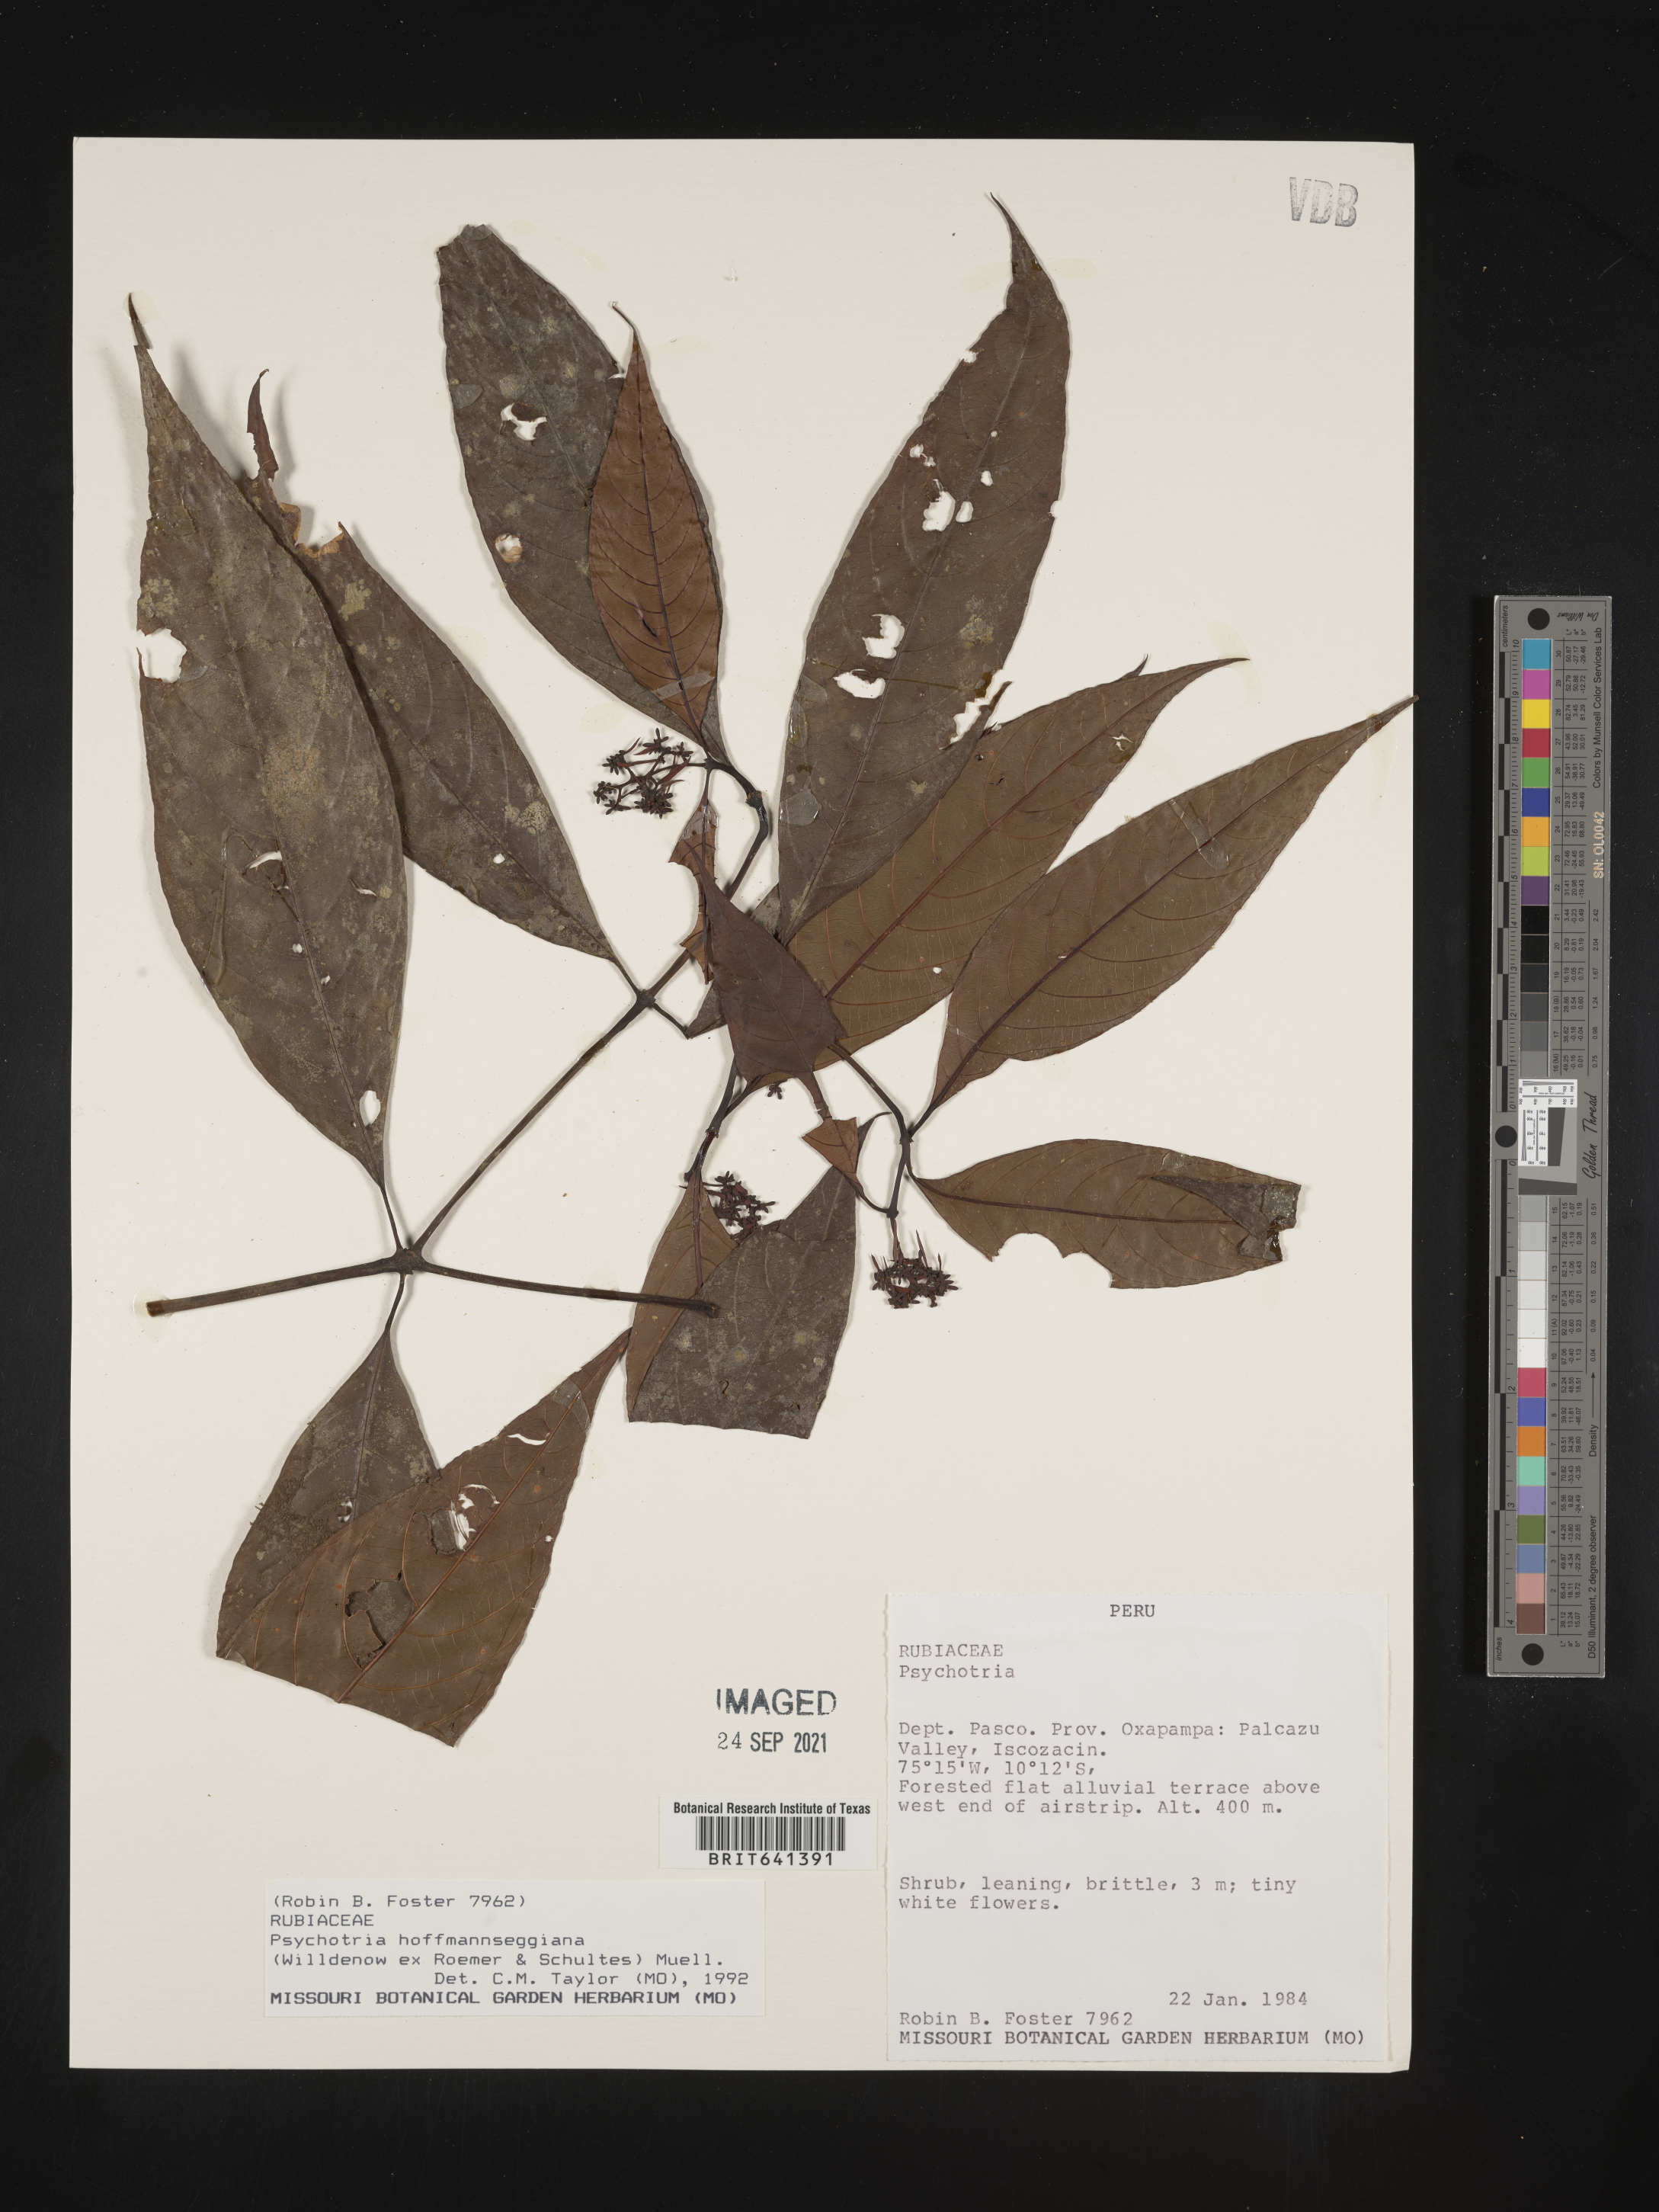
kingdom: Plantae
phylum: Tracheophyta
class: Magnoliopsida
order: Gentianales
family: Rubiaceae
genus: Psychotria
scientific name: Psychotria
